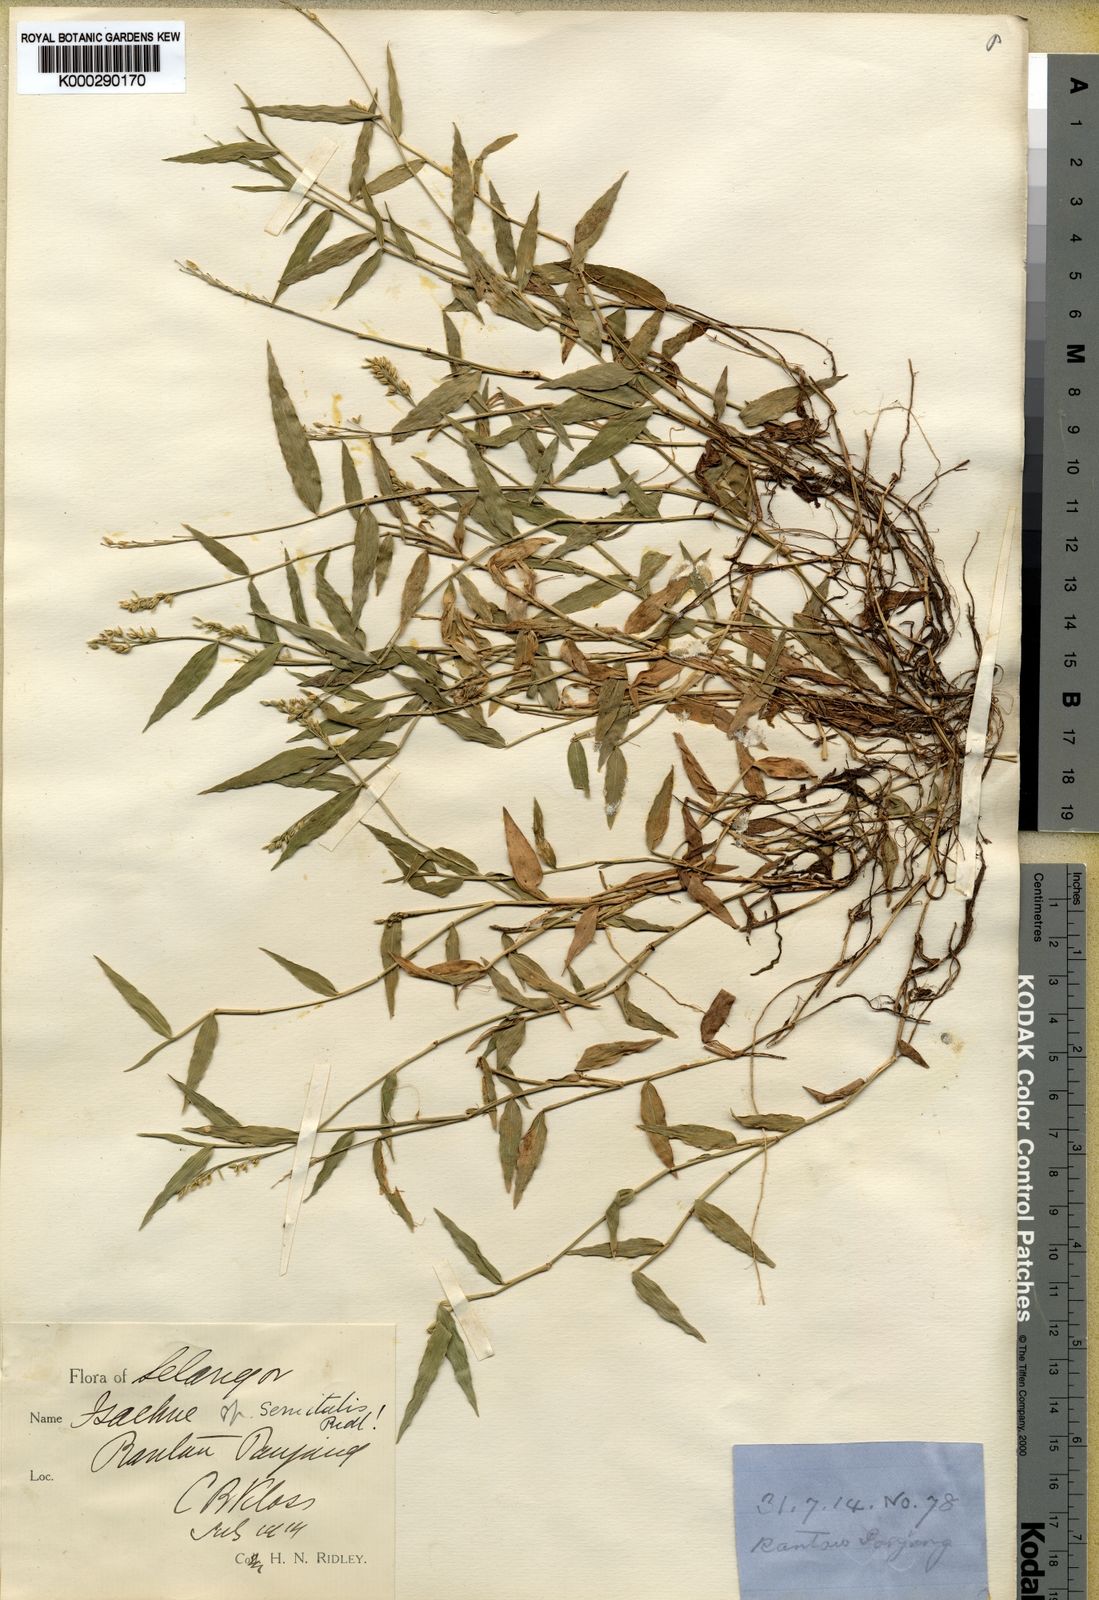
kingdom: Plantae
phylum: Tracheophyta
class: Liliopsida
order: Poales
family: Poaceae
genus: Isachne
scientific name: Isachne kunthiana
